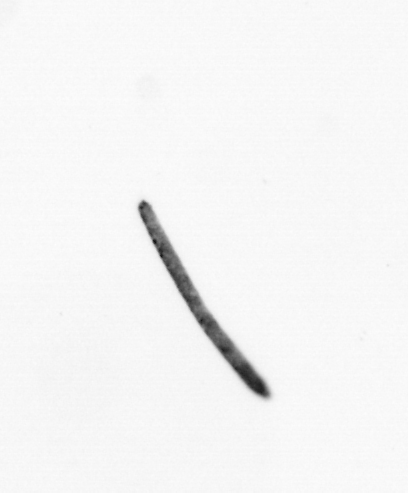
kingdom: Bacteria
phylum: Cyanobacteria
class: Cyanobacteriia
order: Cyanobacteriales
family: Microcoleaceae
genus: Trichodesmium
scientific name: Trichodesmium
